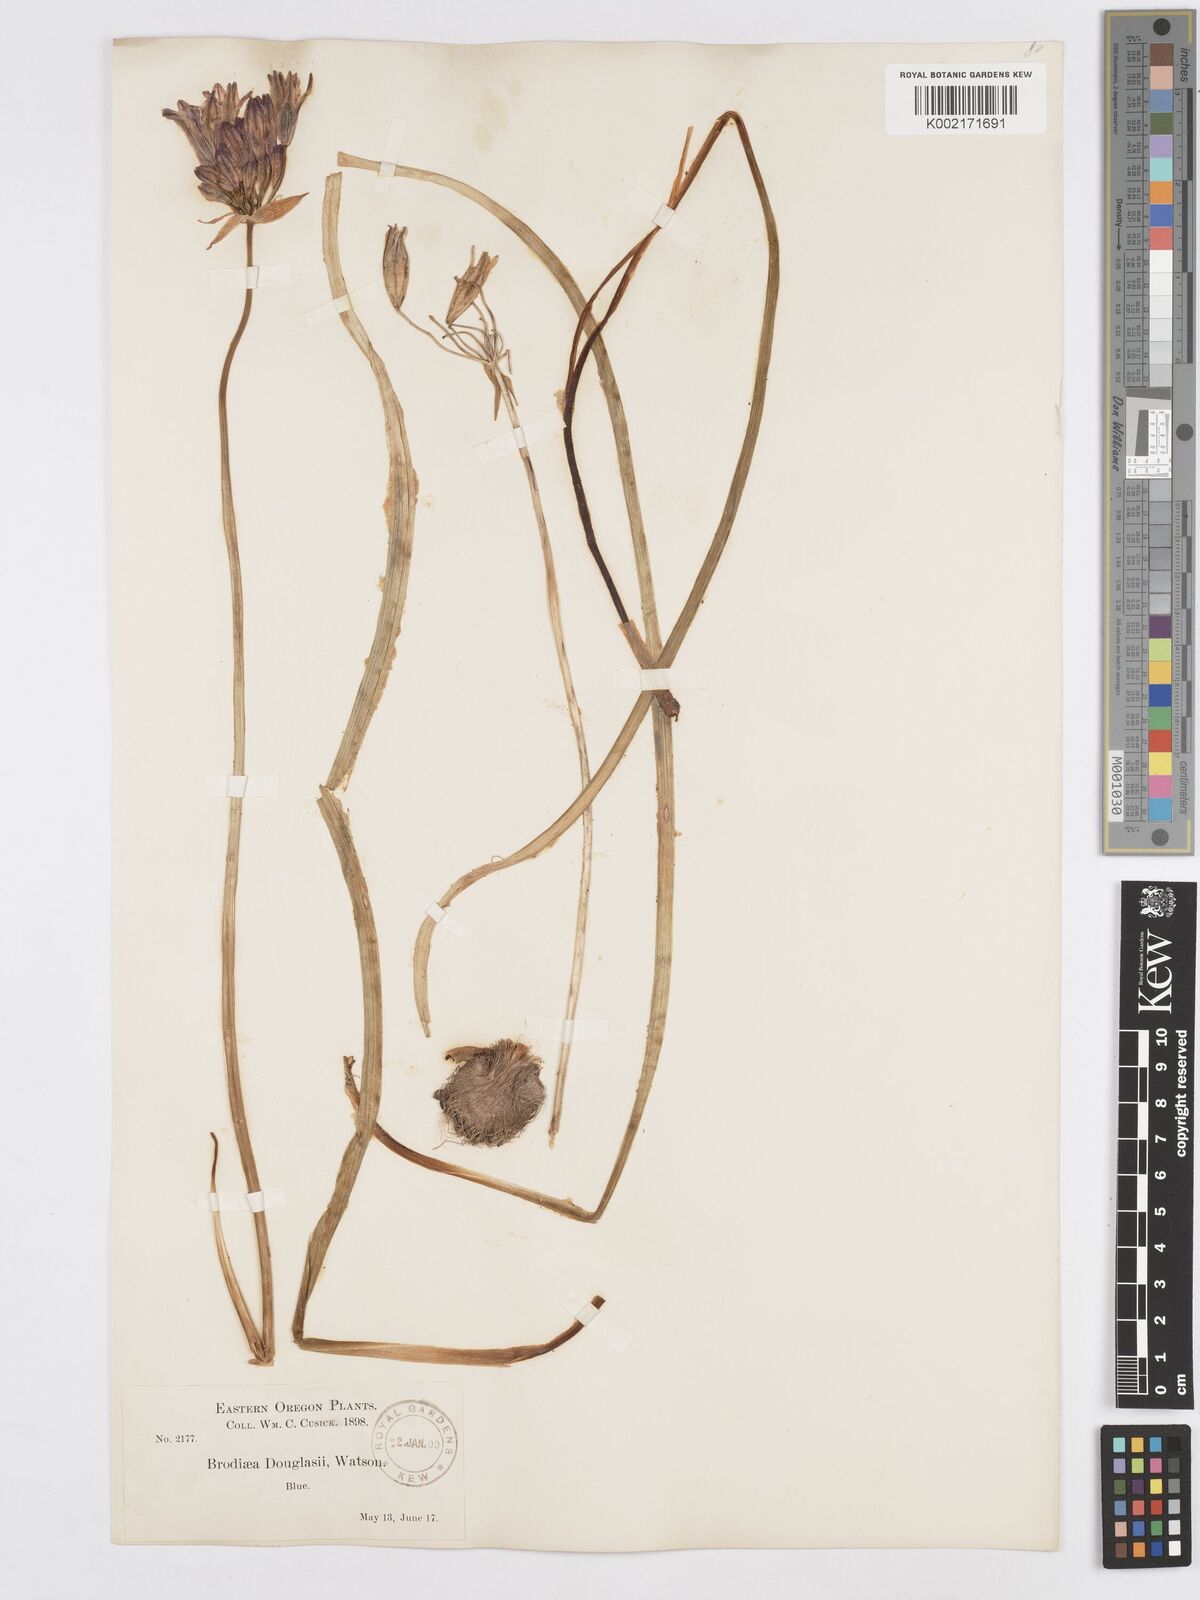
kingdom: Plantae
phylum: Tracheophyta
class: Liliopsida
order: Asparagales
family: Asparagaceae
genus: Triteleia
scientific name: Triteleia grandiflora
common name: Wild hyacinth
